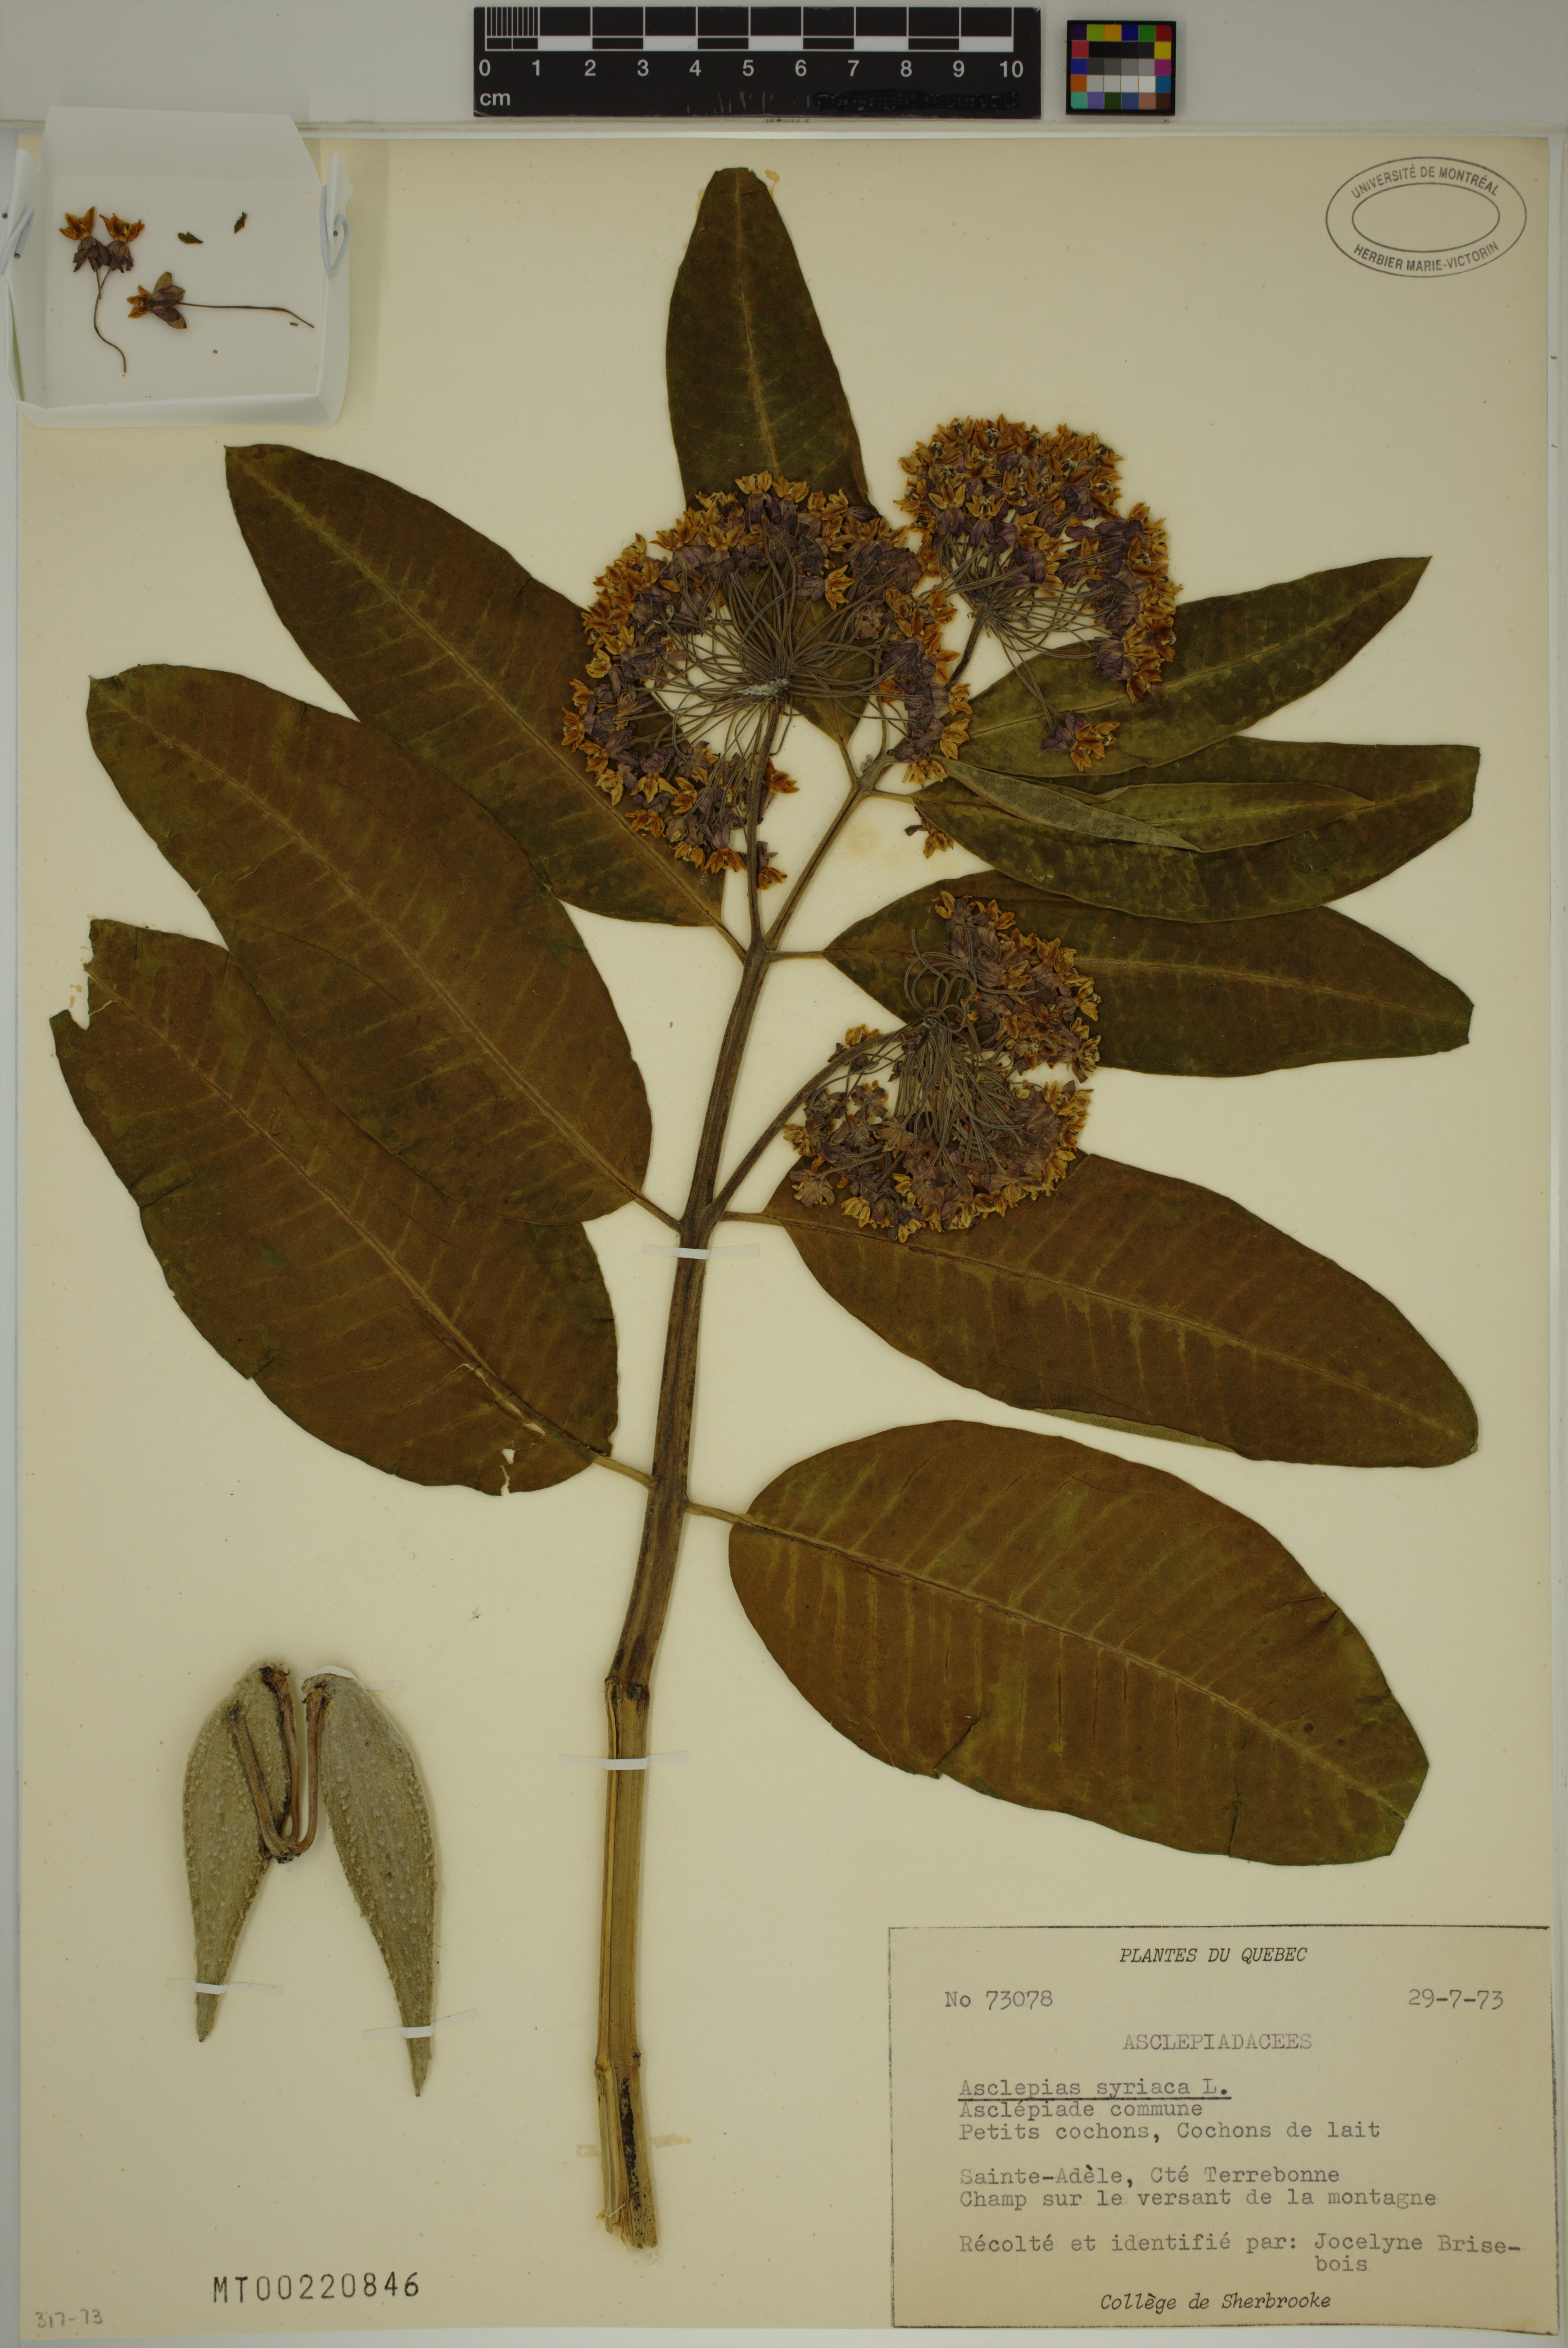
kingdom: Plantae
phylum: Tracheophyta
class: Magnoliopsida
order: Gentianales
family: Apocynaceae
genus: Asclepias
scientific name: Asclepias syriaca
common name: Common milkweed
